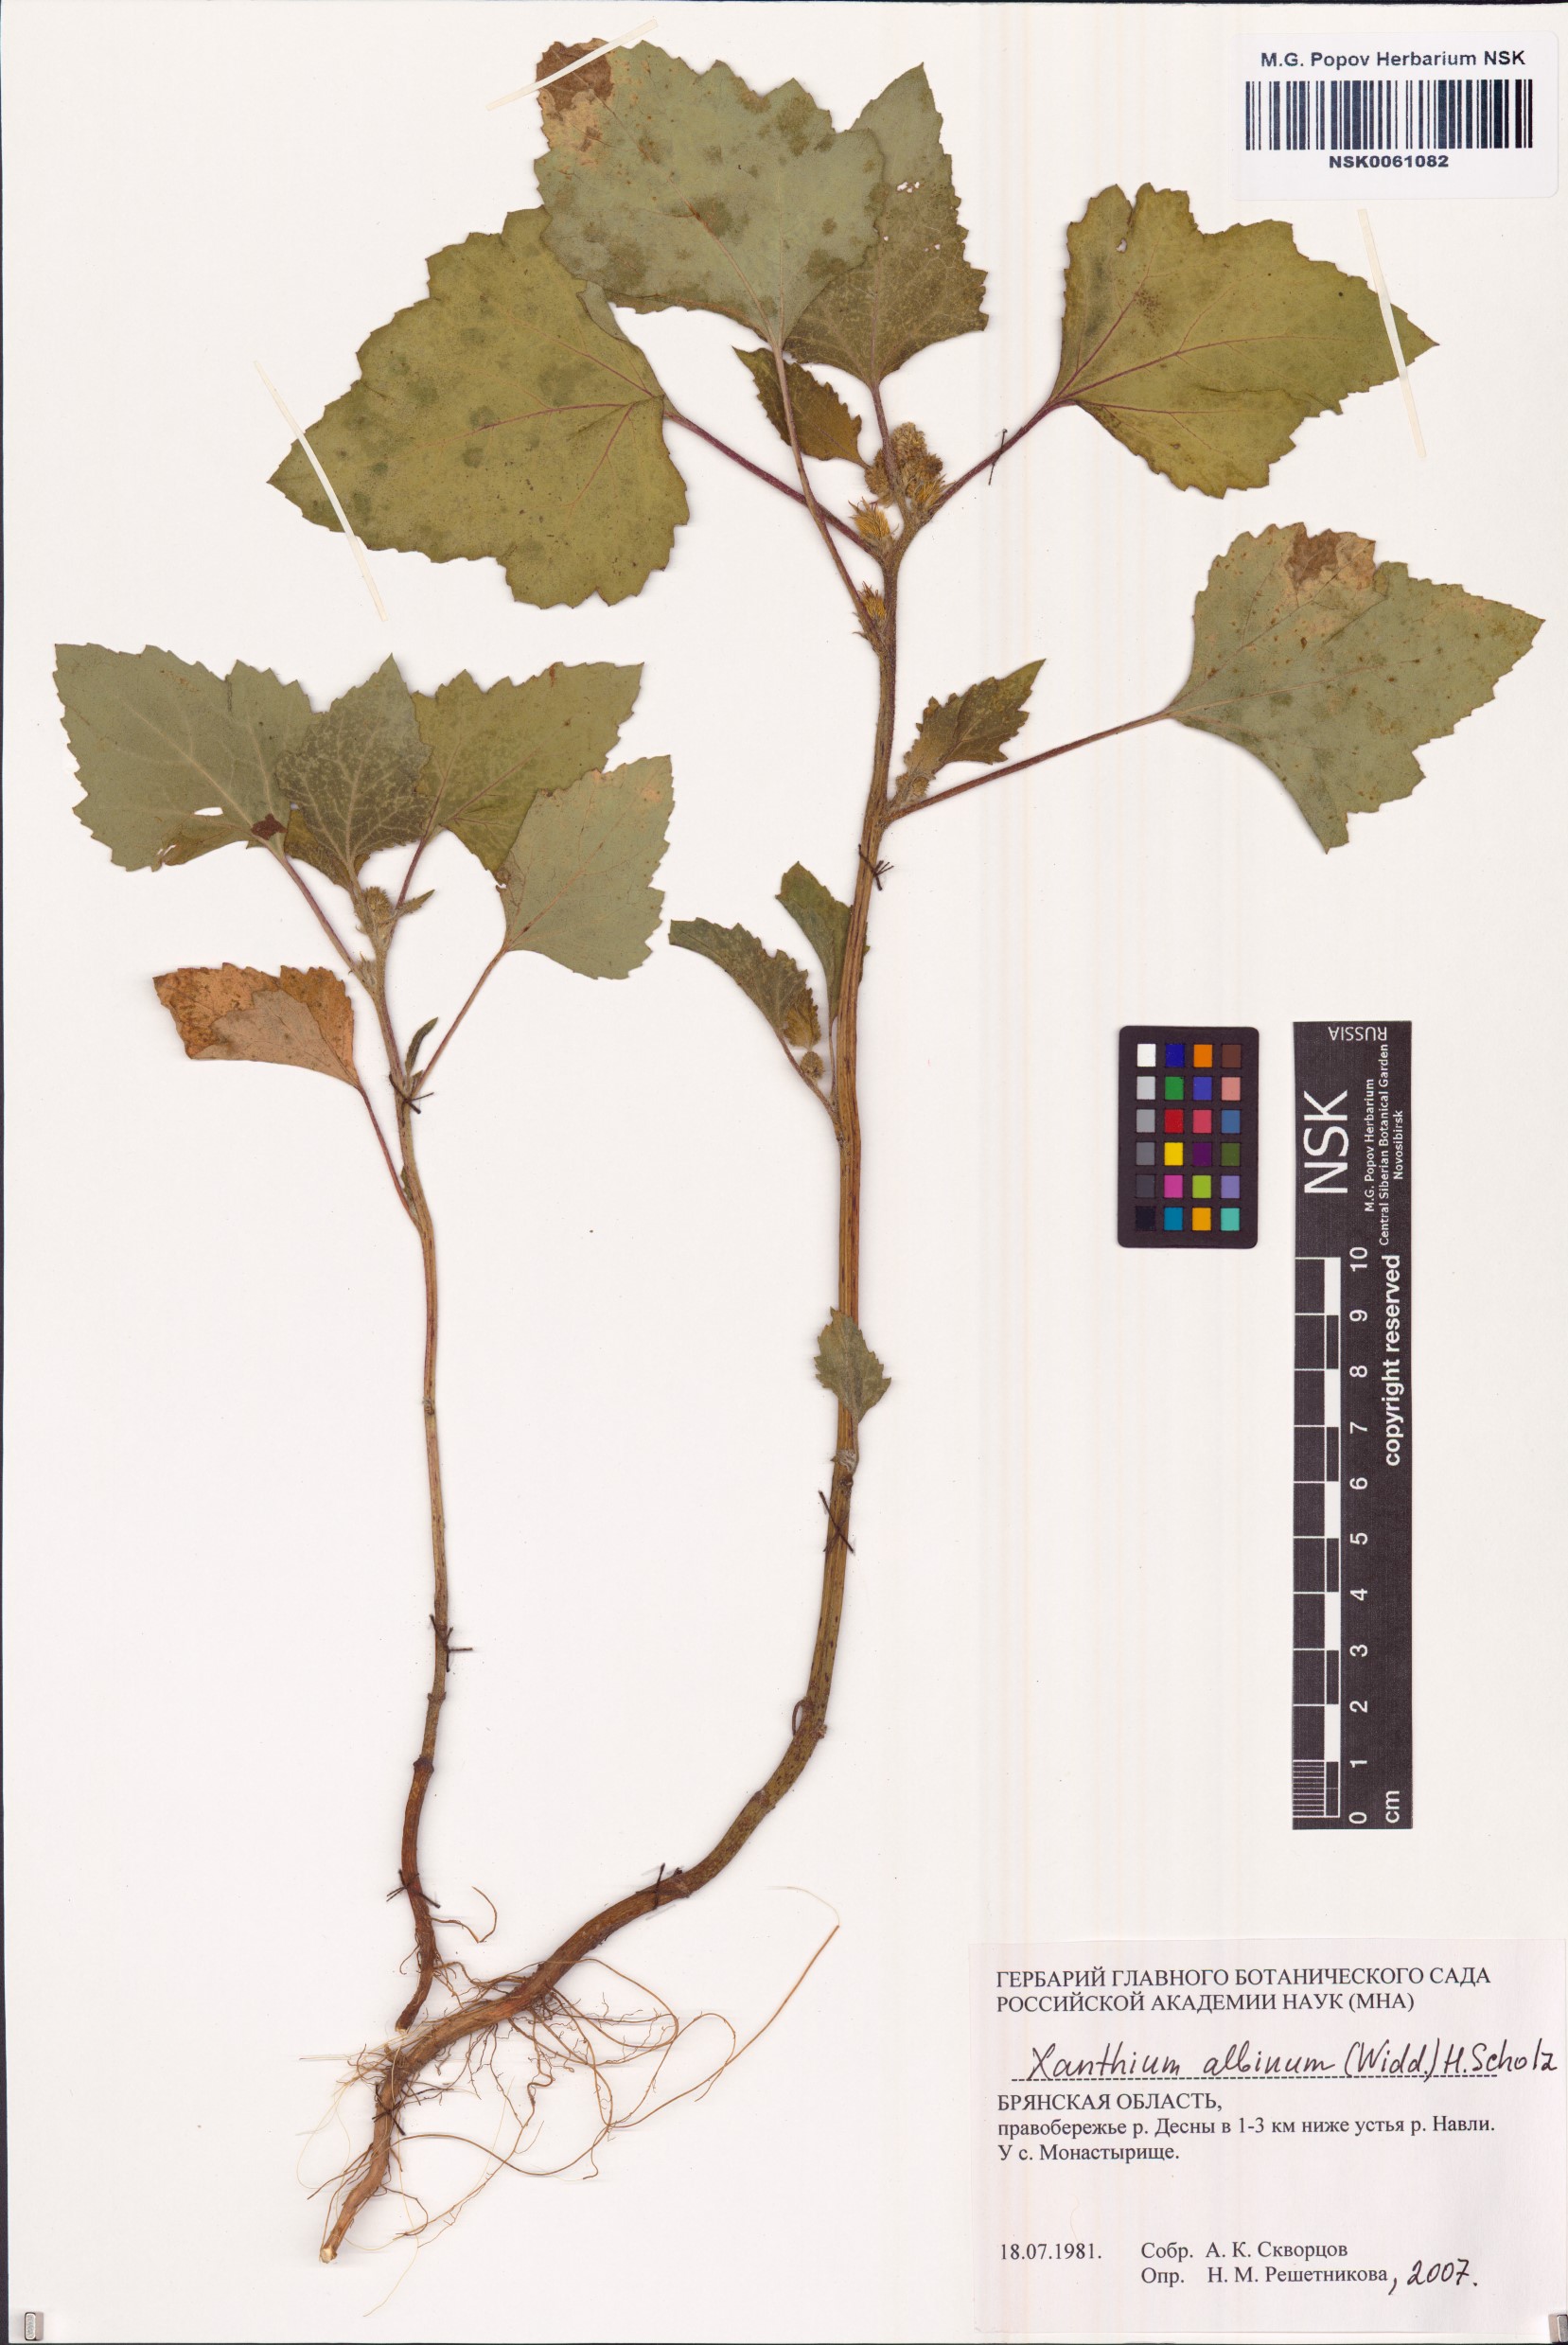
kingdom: Plantae
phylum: Tracheophyta
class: Magnoliopsida
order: Asterales
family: Asteraceae
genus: Xanthium
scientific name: Xanthium orientale
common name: Californian burr
